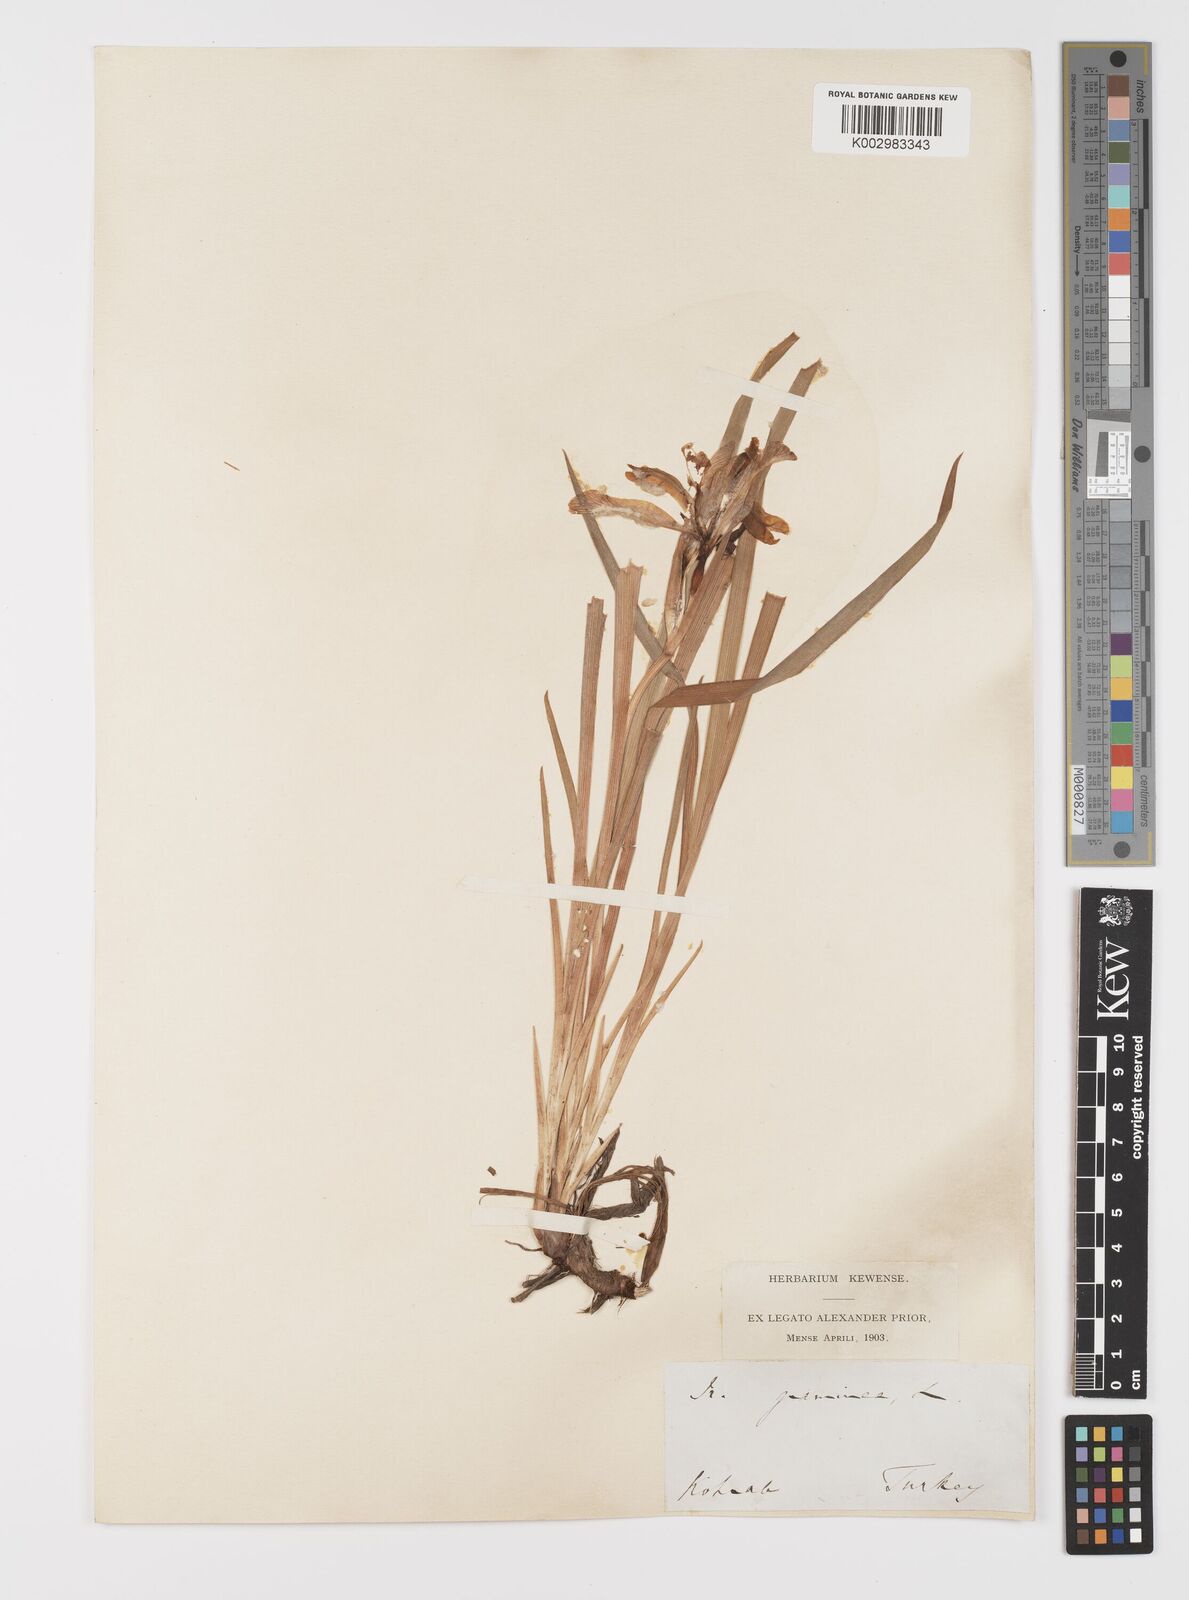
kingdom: Plantae
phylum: Tracheophyta
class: Liliopsida
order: Asparagales
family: Iridaceae
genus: Iris
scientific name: Iris graminea
